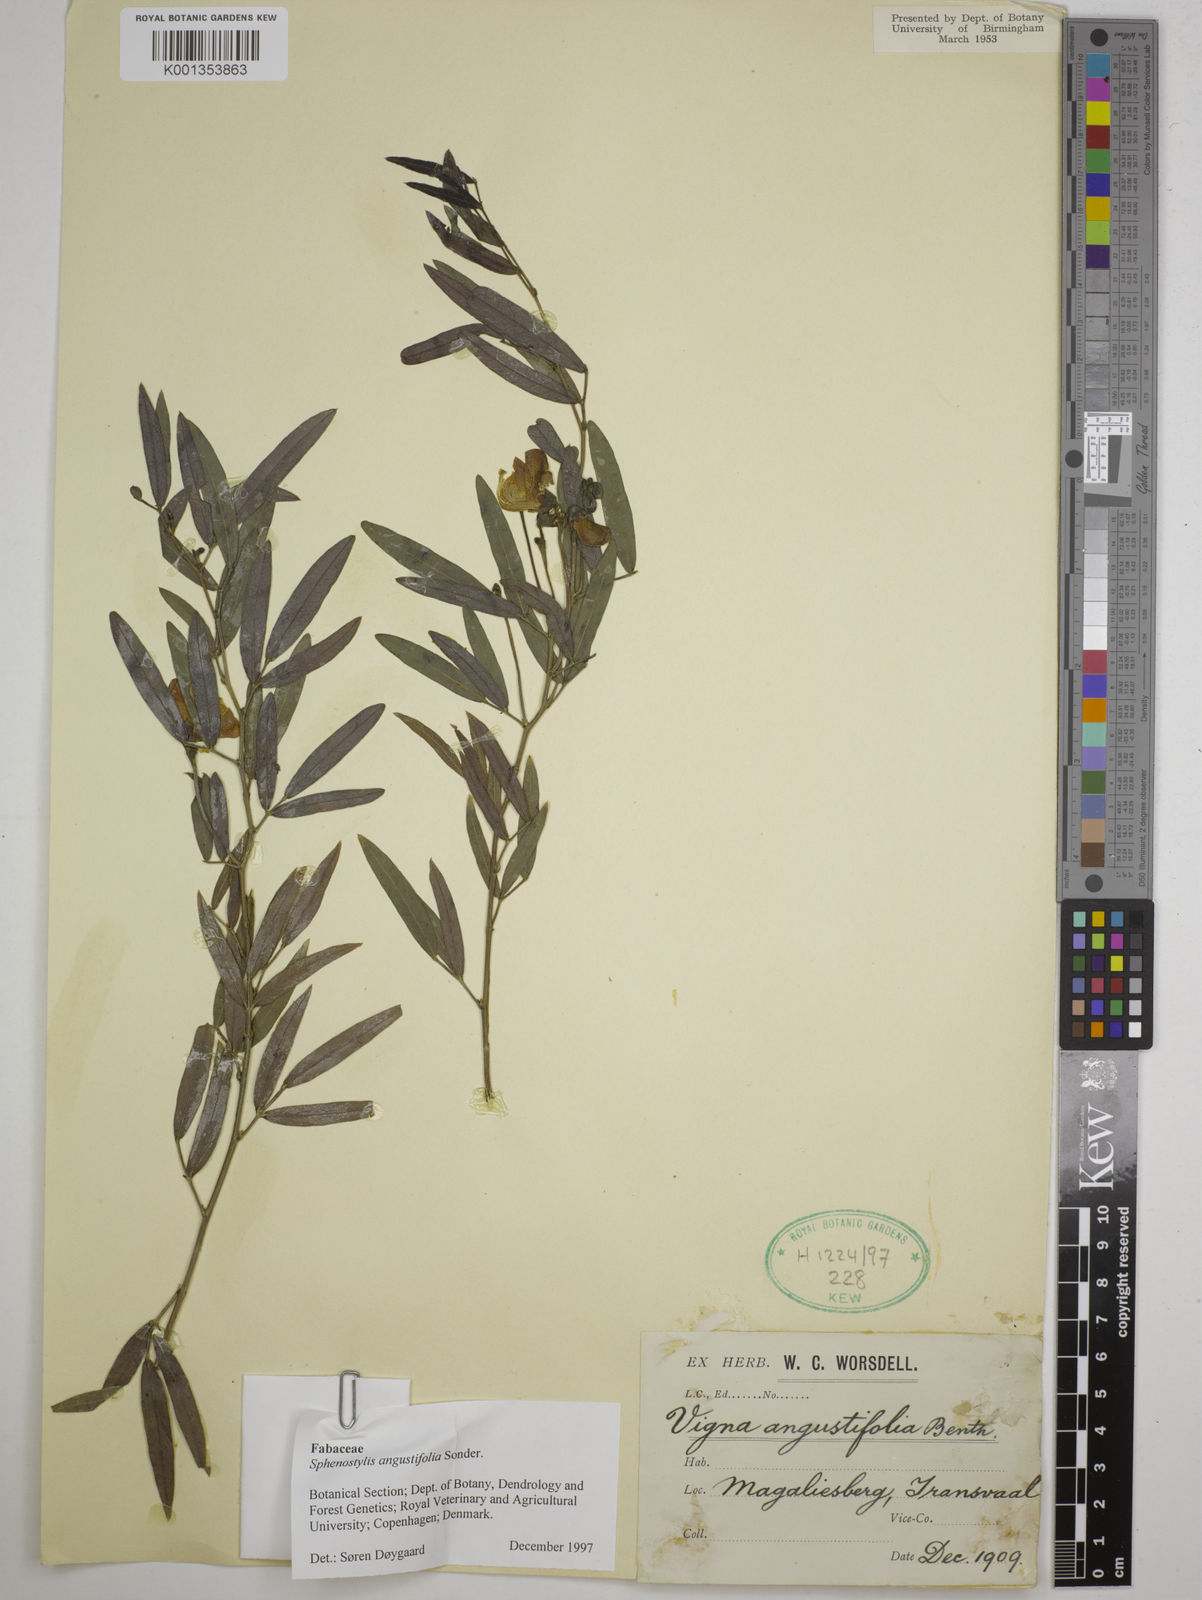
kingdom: Plantae
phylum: Tracheophyta
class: Magnoliopsida
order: Fabales
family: Fabaceae
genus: Sphenostylis
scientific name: Sphenostylis angustifolia
